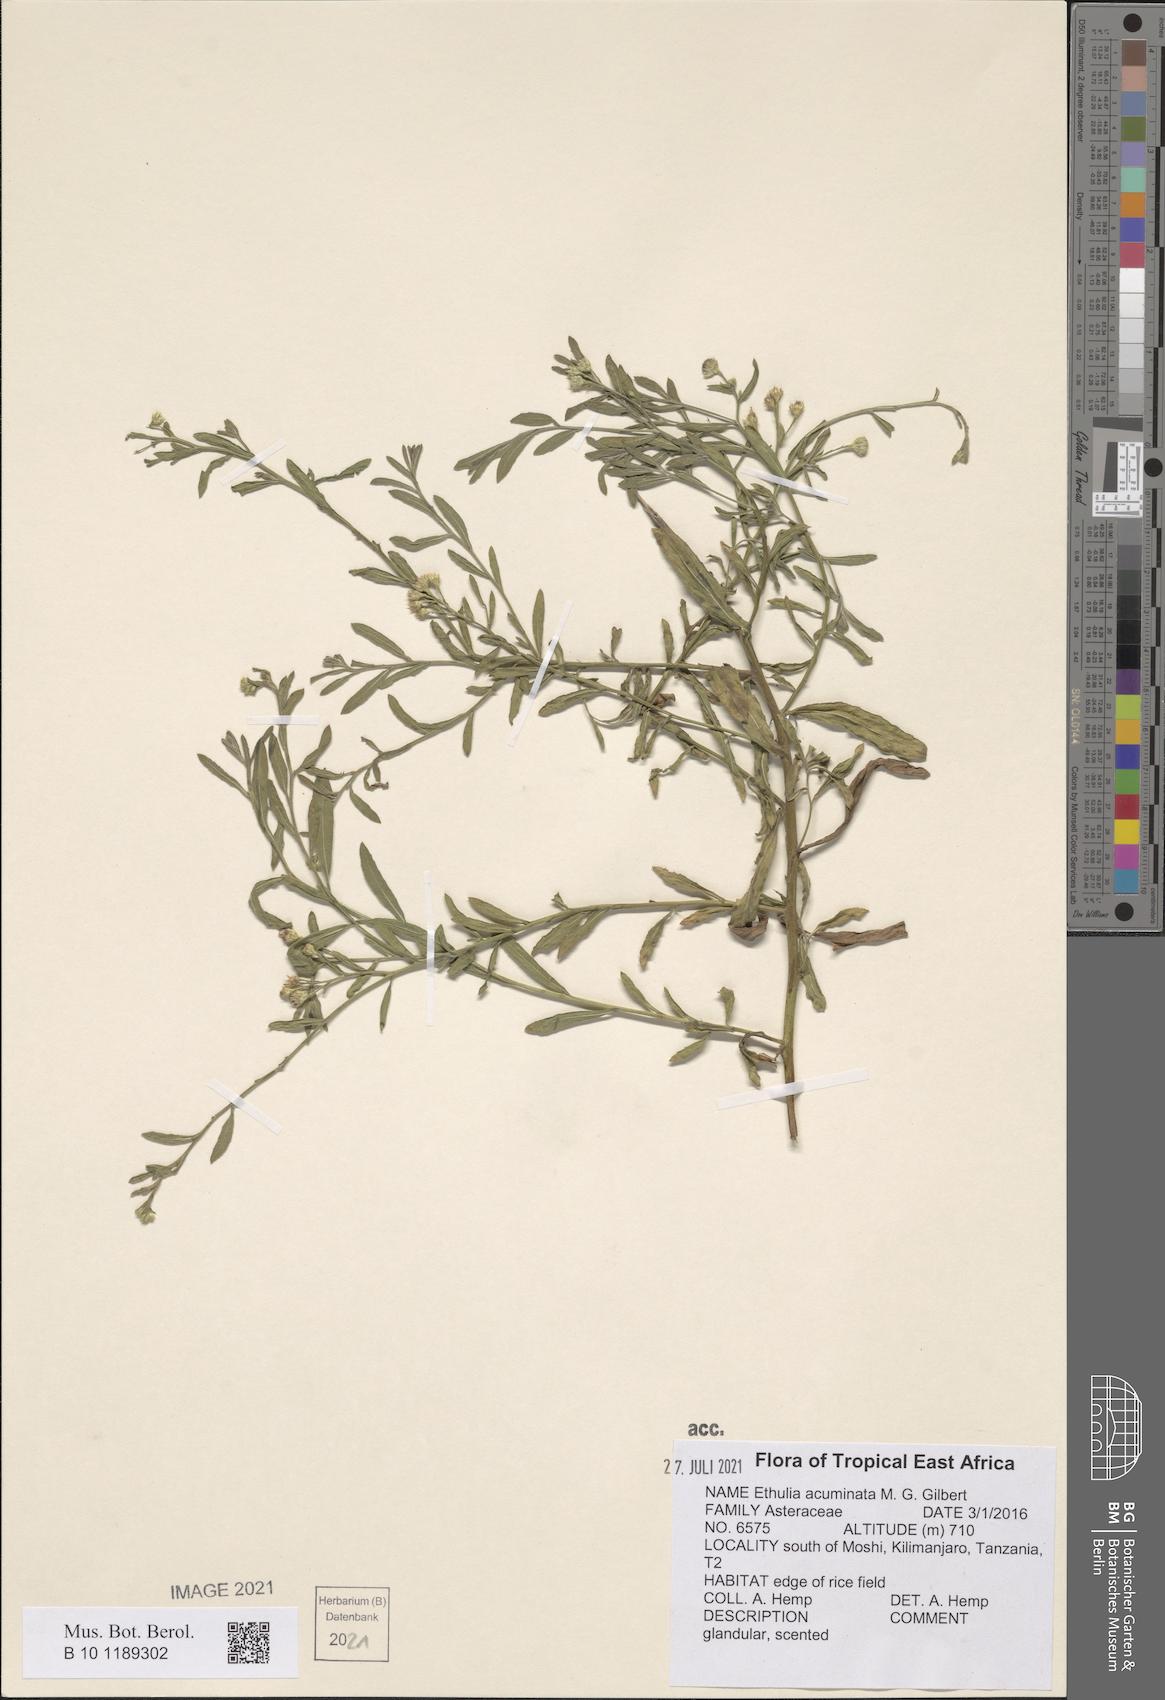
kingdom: Plantae
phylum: Tracheophyta
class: Magnoliopsida
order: Asterales
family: Asteraceae
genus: Ethulia
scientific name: Ethulia acuminata
